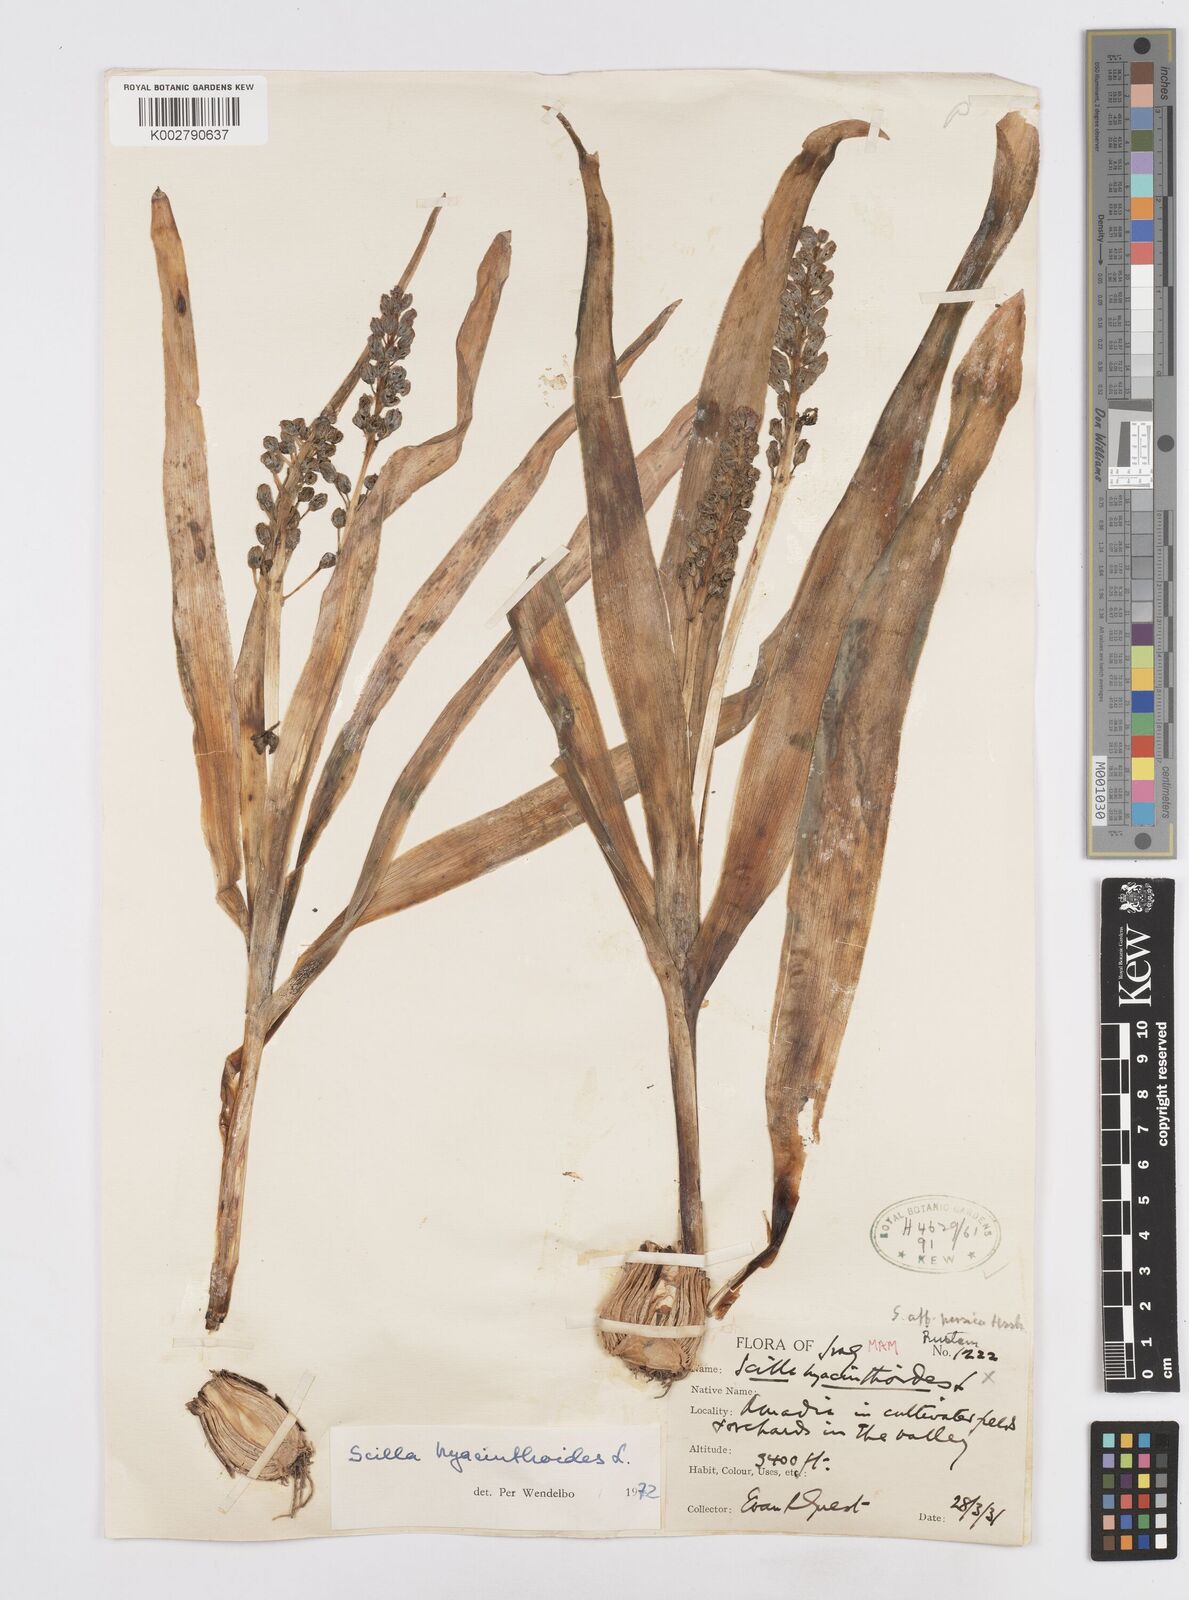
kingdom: Plantae
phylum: Tracheophyta
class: Liliopsida
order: Asparagales
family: Asparagaceae
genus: Scilla
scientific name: Scilla hyacinthoides
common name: Scilla
